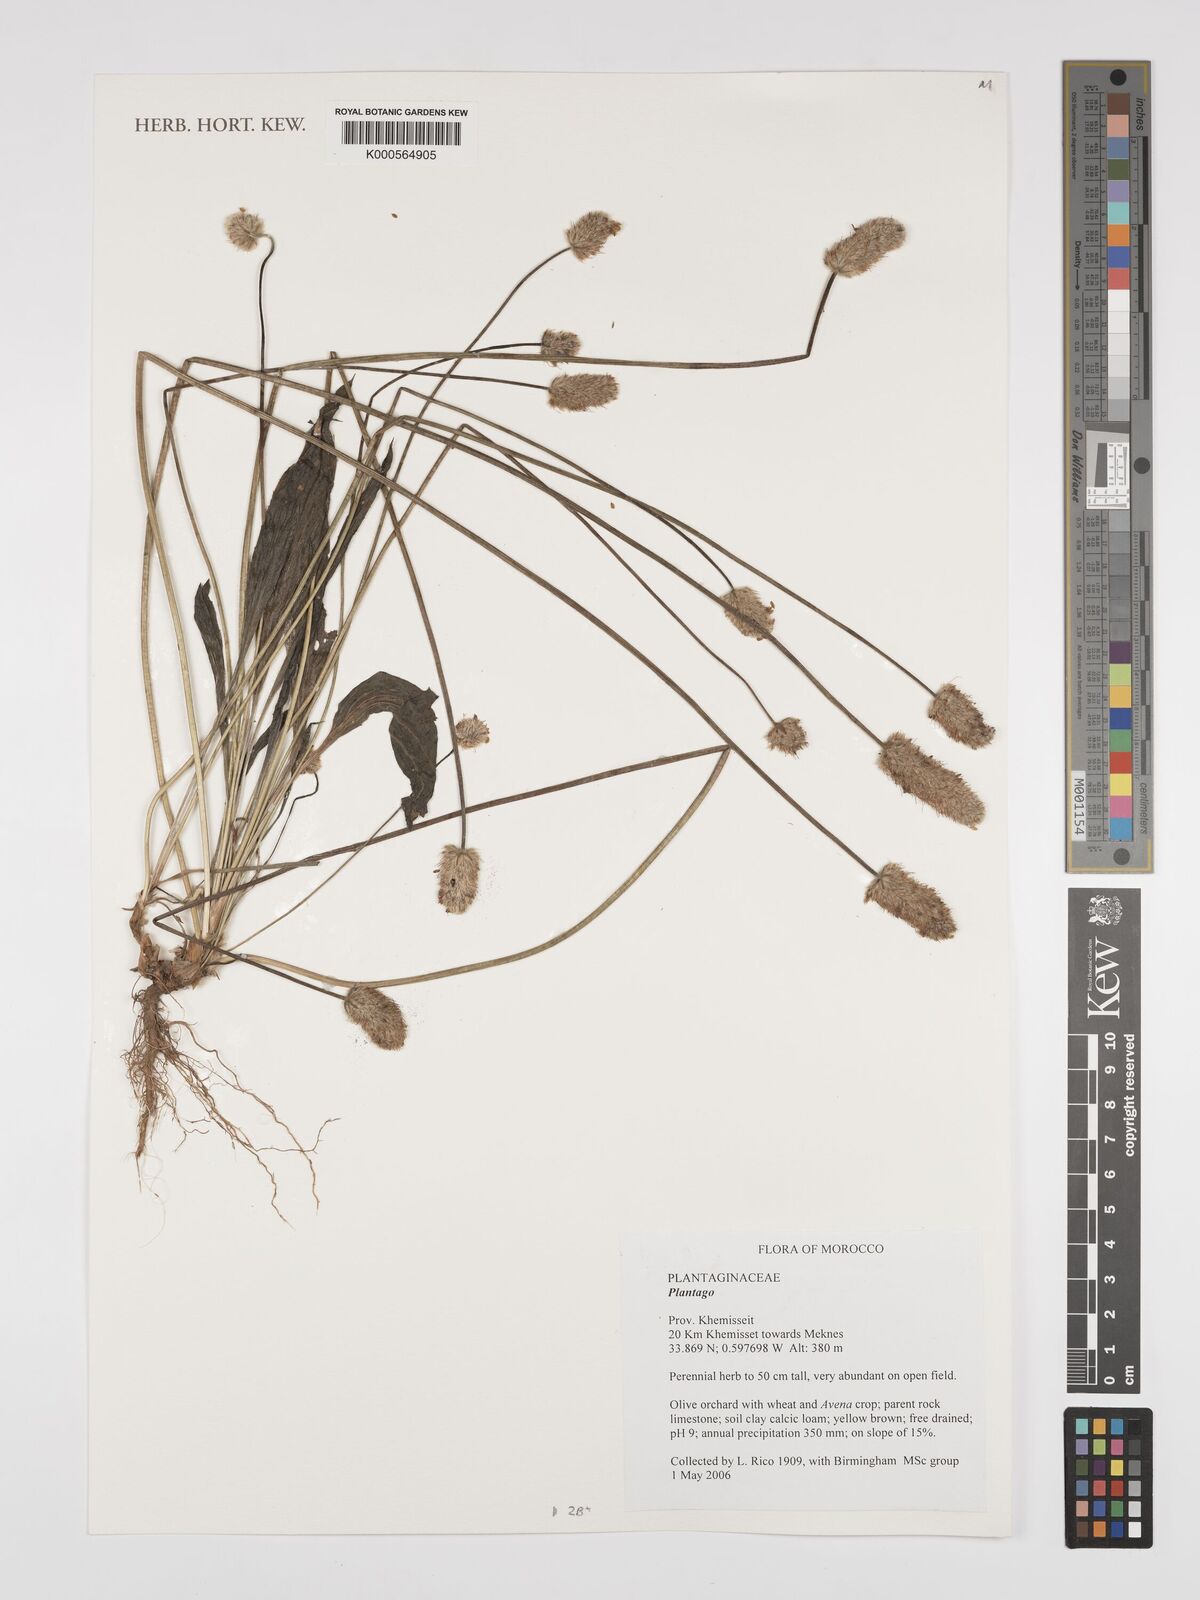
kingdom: Plantae
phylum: Tracheophyta
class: Magnoliopsida
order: Lamiales
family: Plantaginaceae
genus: Plantago
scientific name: Plantago
